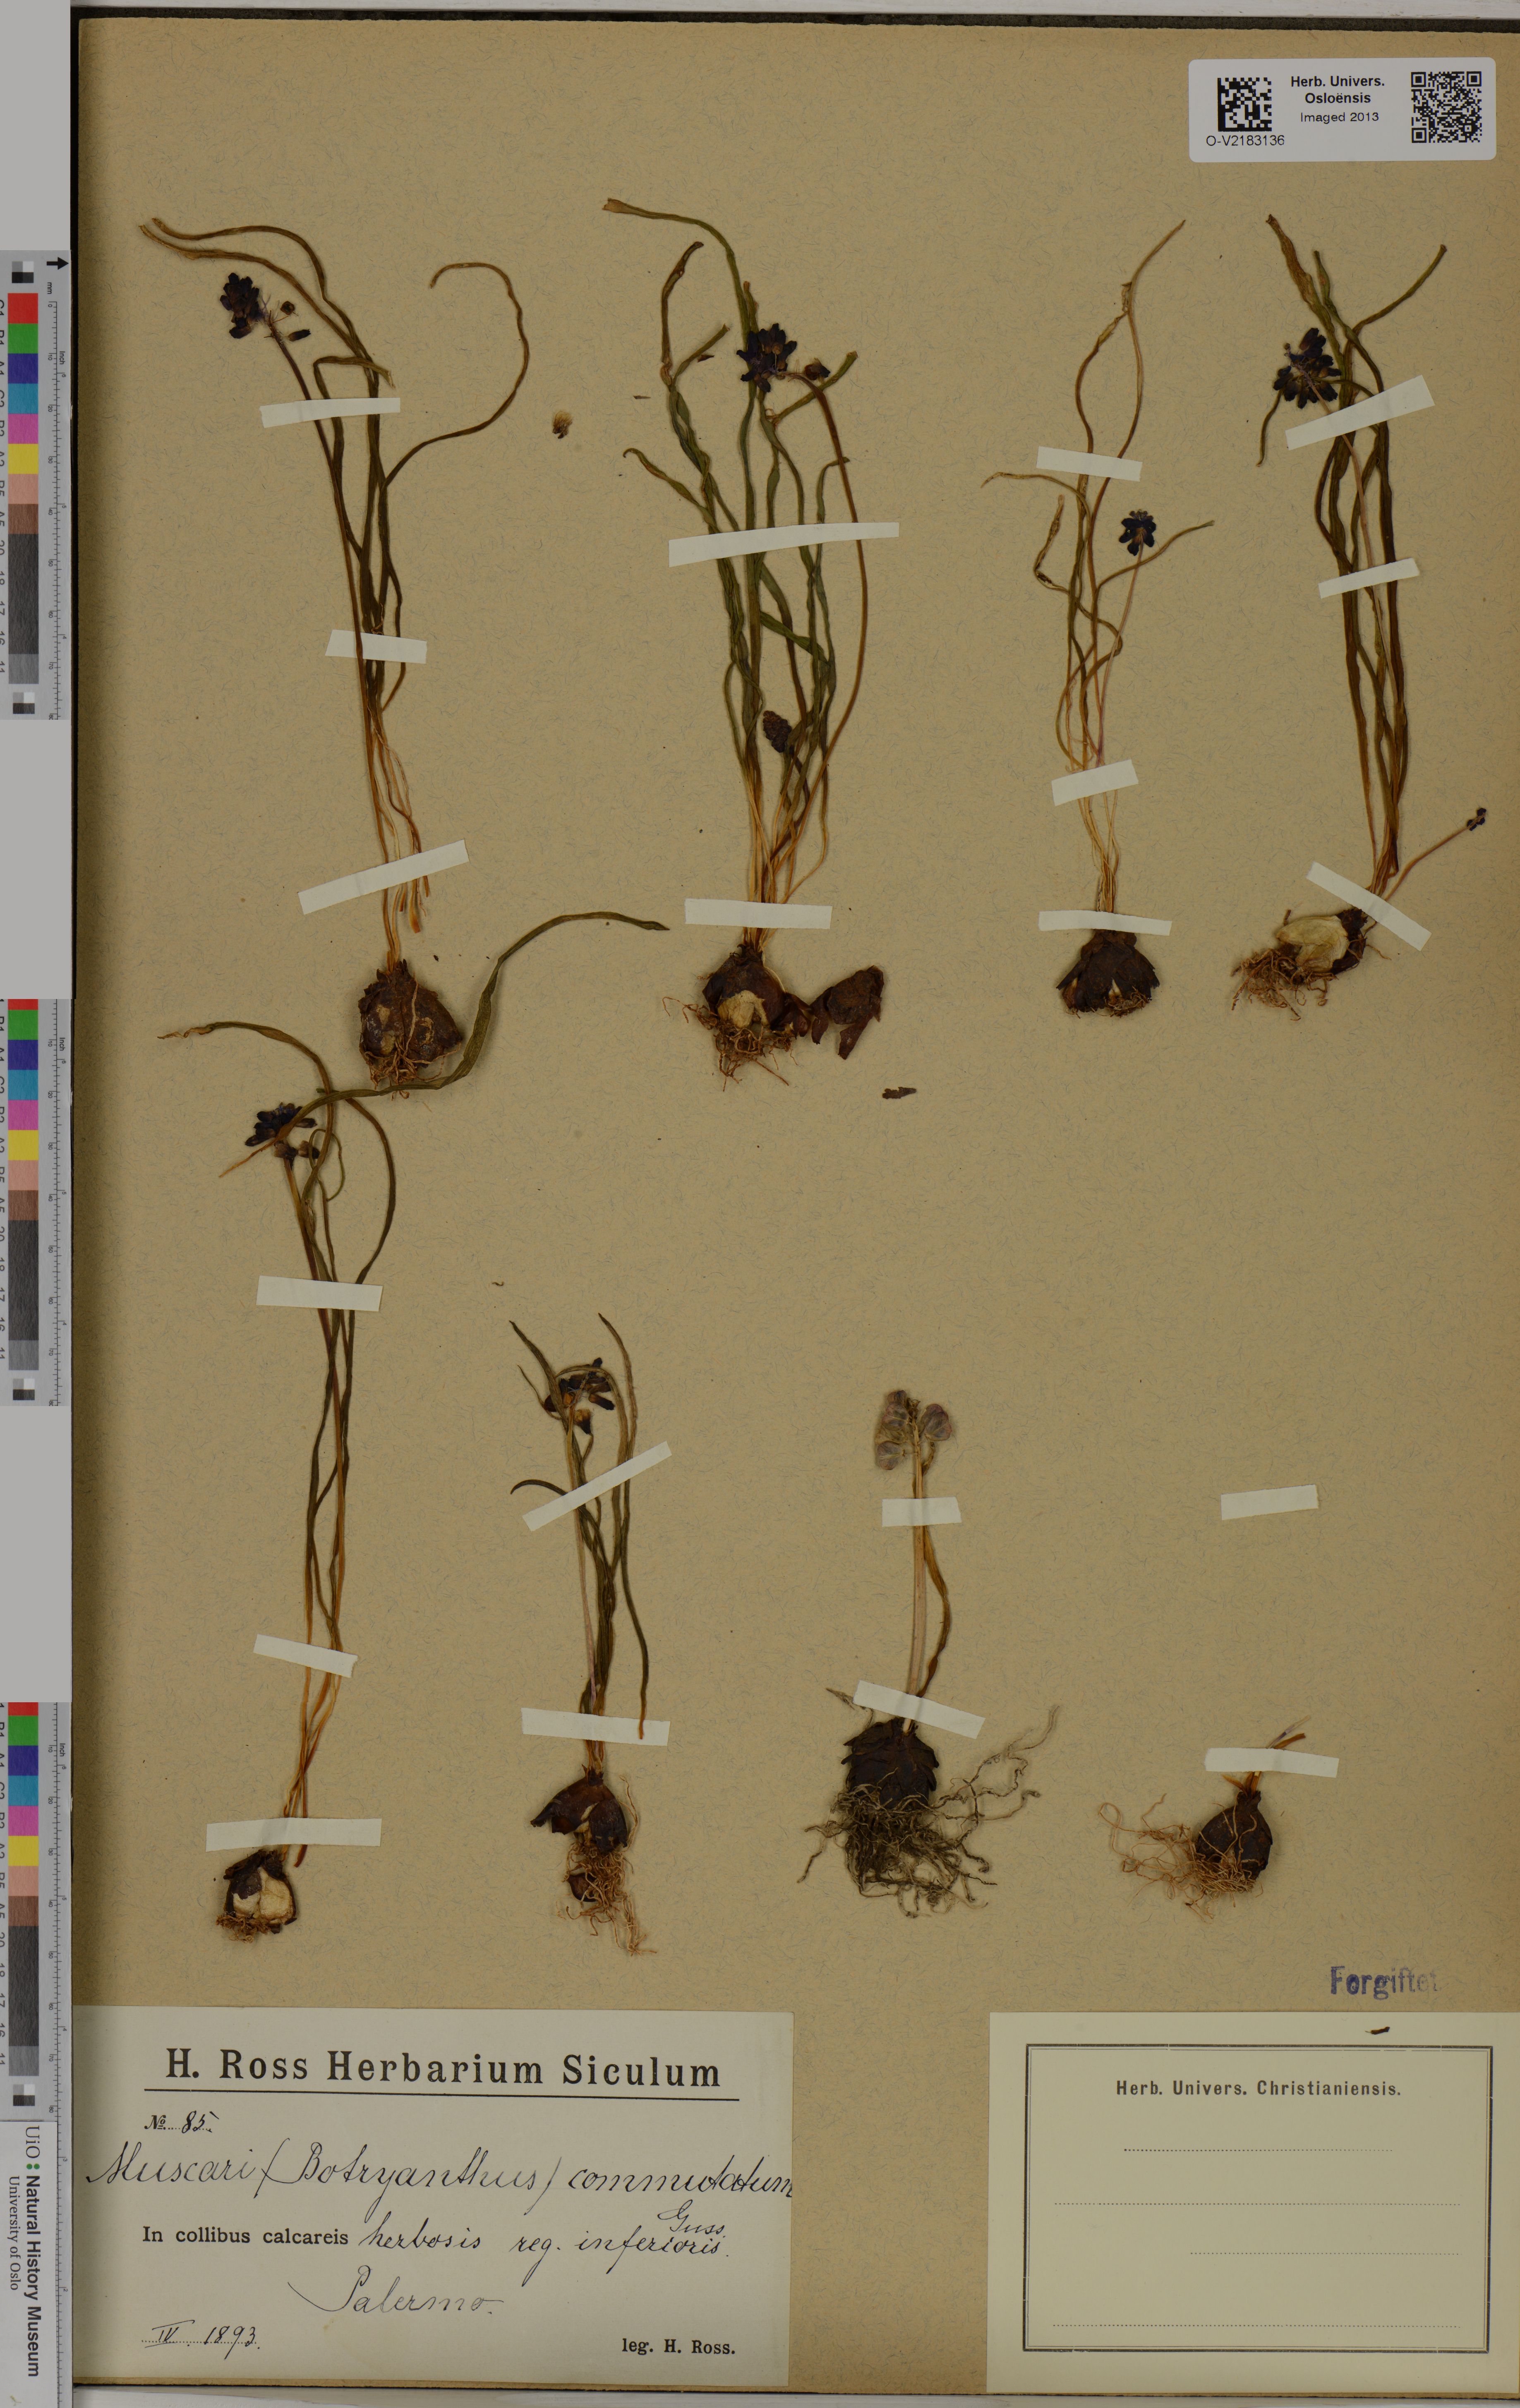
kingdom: Plantae
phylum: Tracheophyta
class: Liliopsida
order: Asparagales
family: Asparagaceae
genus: Muscari
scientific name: Muscari commutatum
